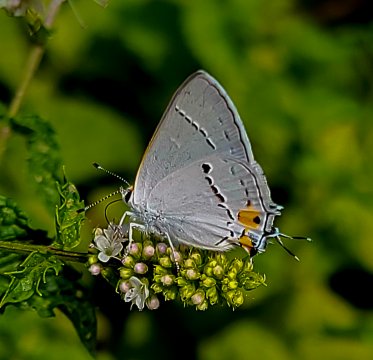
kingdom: Animalia
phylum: Arthropoda
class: Insecta
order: Lepidoptera
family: Lycaenidae
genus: Strymon
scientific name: Strymon melinus
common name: Gray Hairstreak
